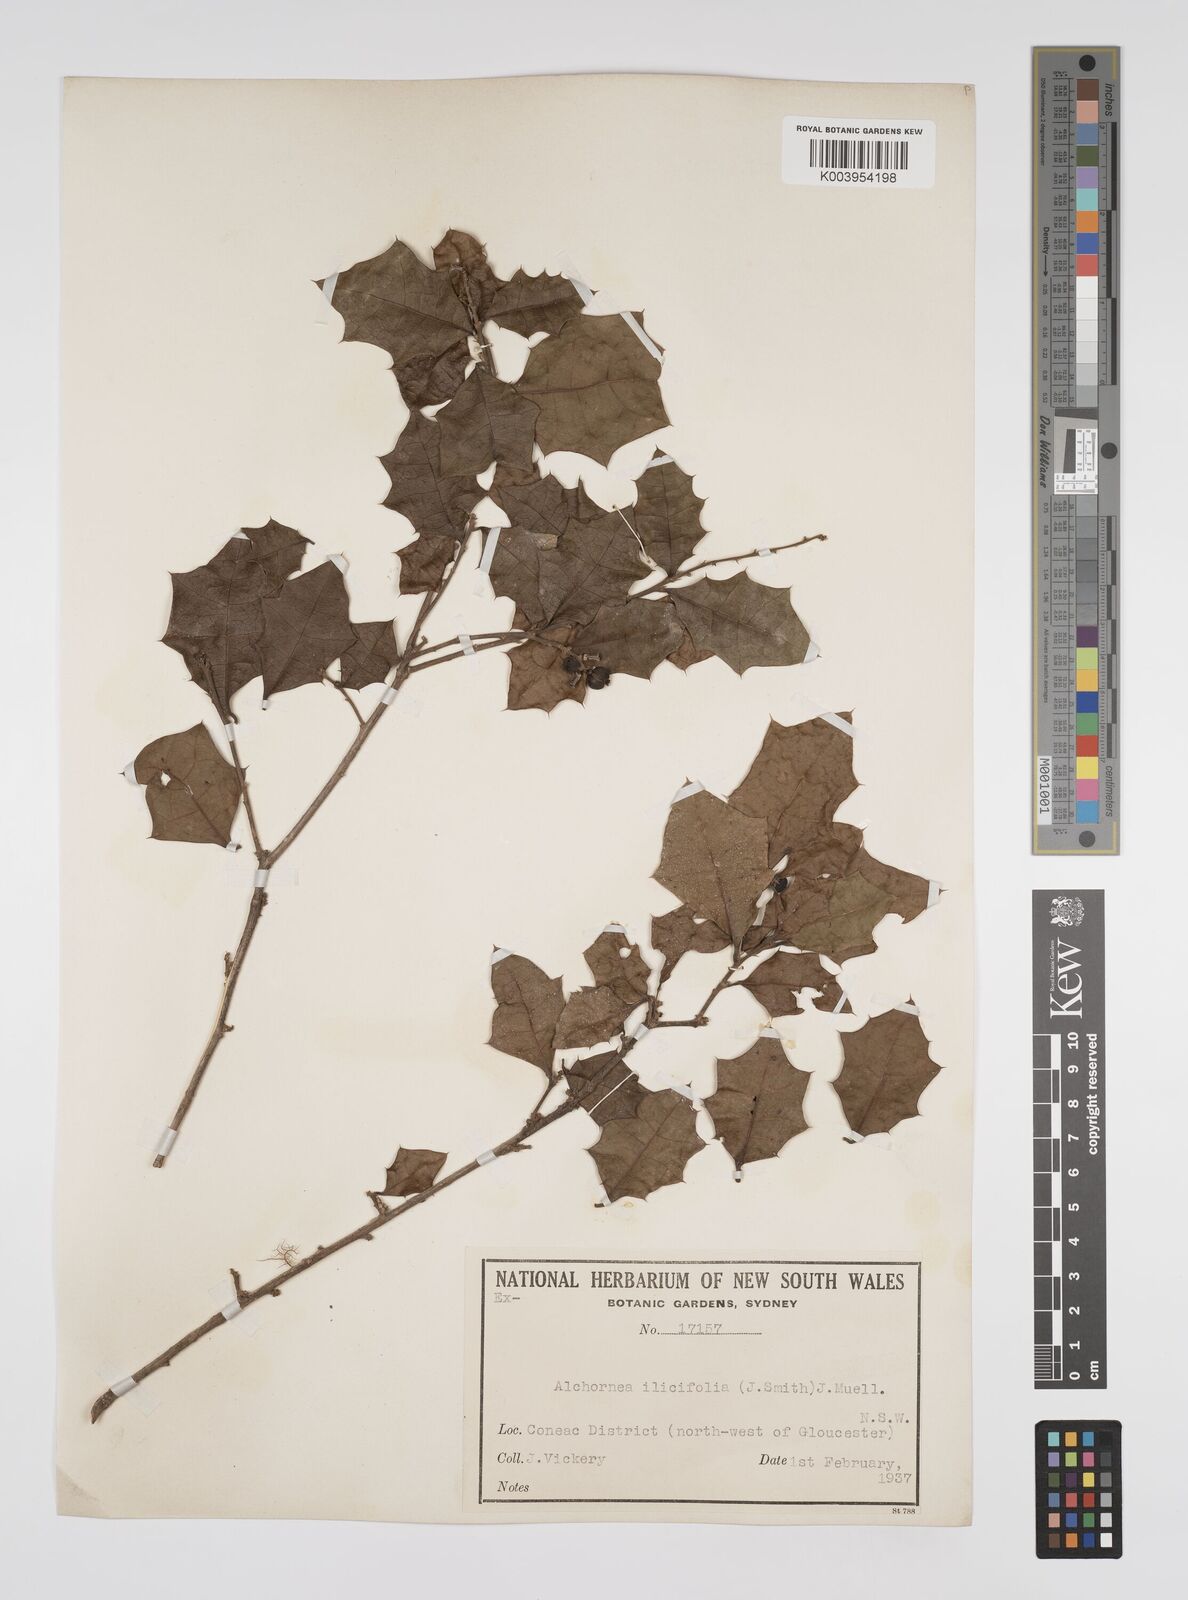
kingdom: Plantae
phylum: Tracheophyta
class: Magnoliopsida
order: Malpighiales
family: Euphorbiaceae
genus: Alchornea
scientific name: Alchornea ilicifolia
